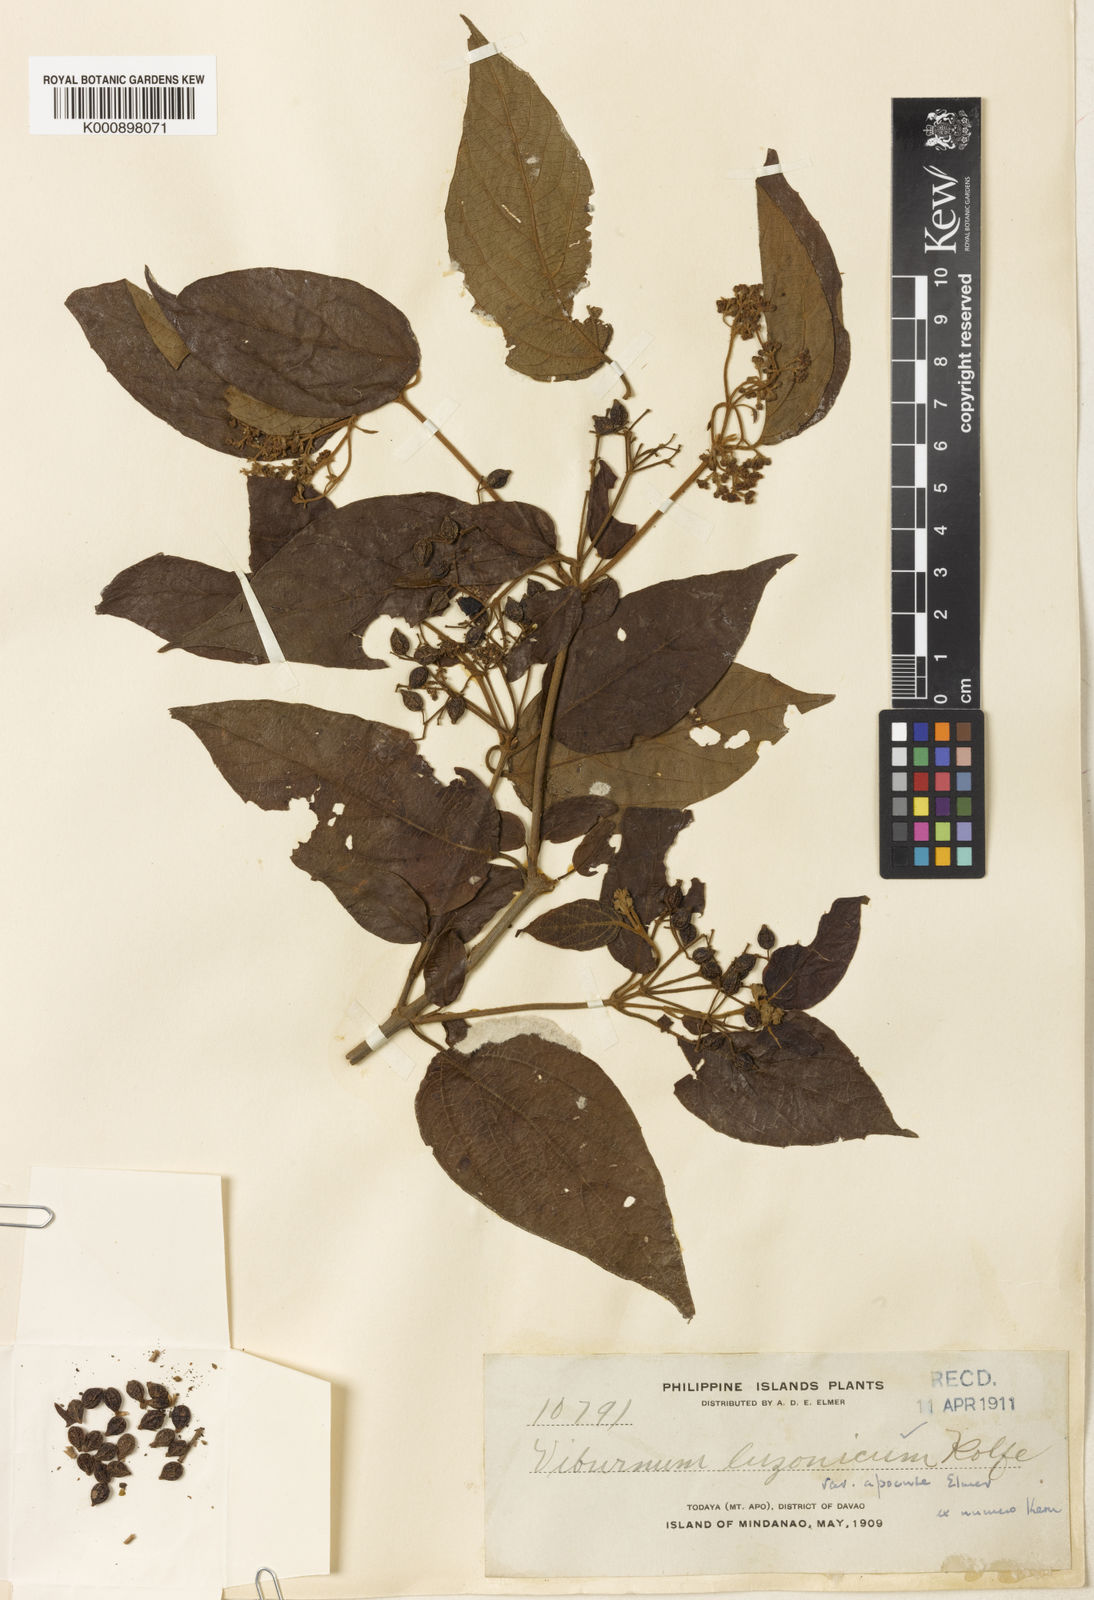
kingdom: Plantae
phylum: Tracheophyta
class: Magnoliopsida
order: Dipsacales
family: Viburnaceae
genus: Viburnum
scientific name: Viburnum luzonicum
